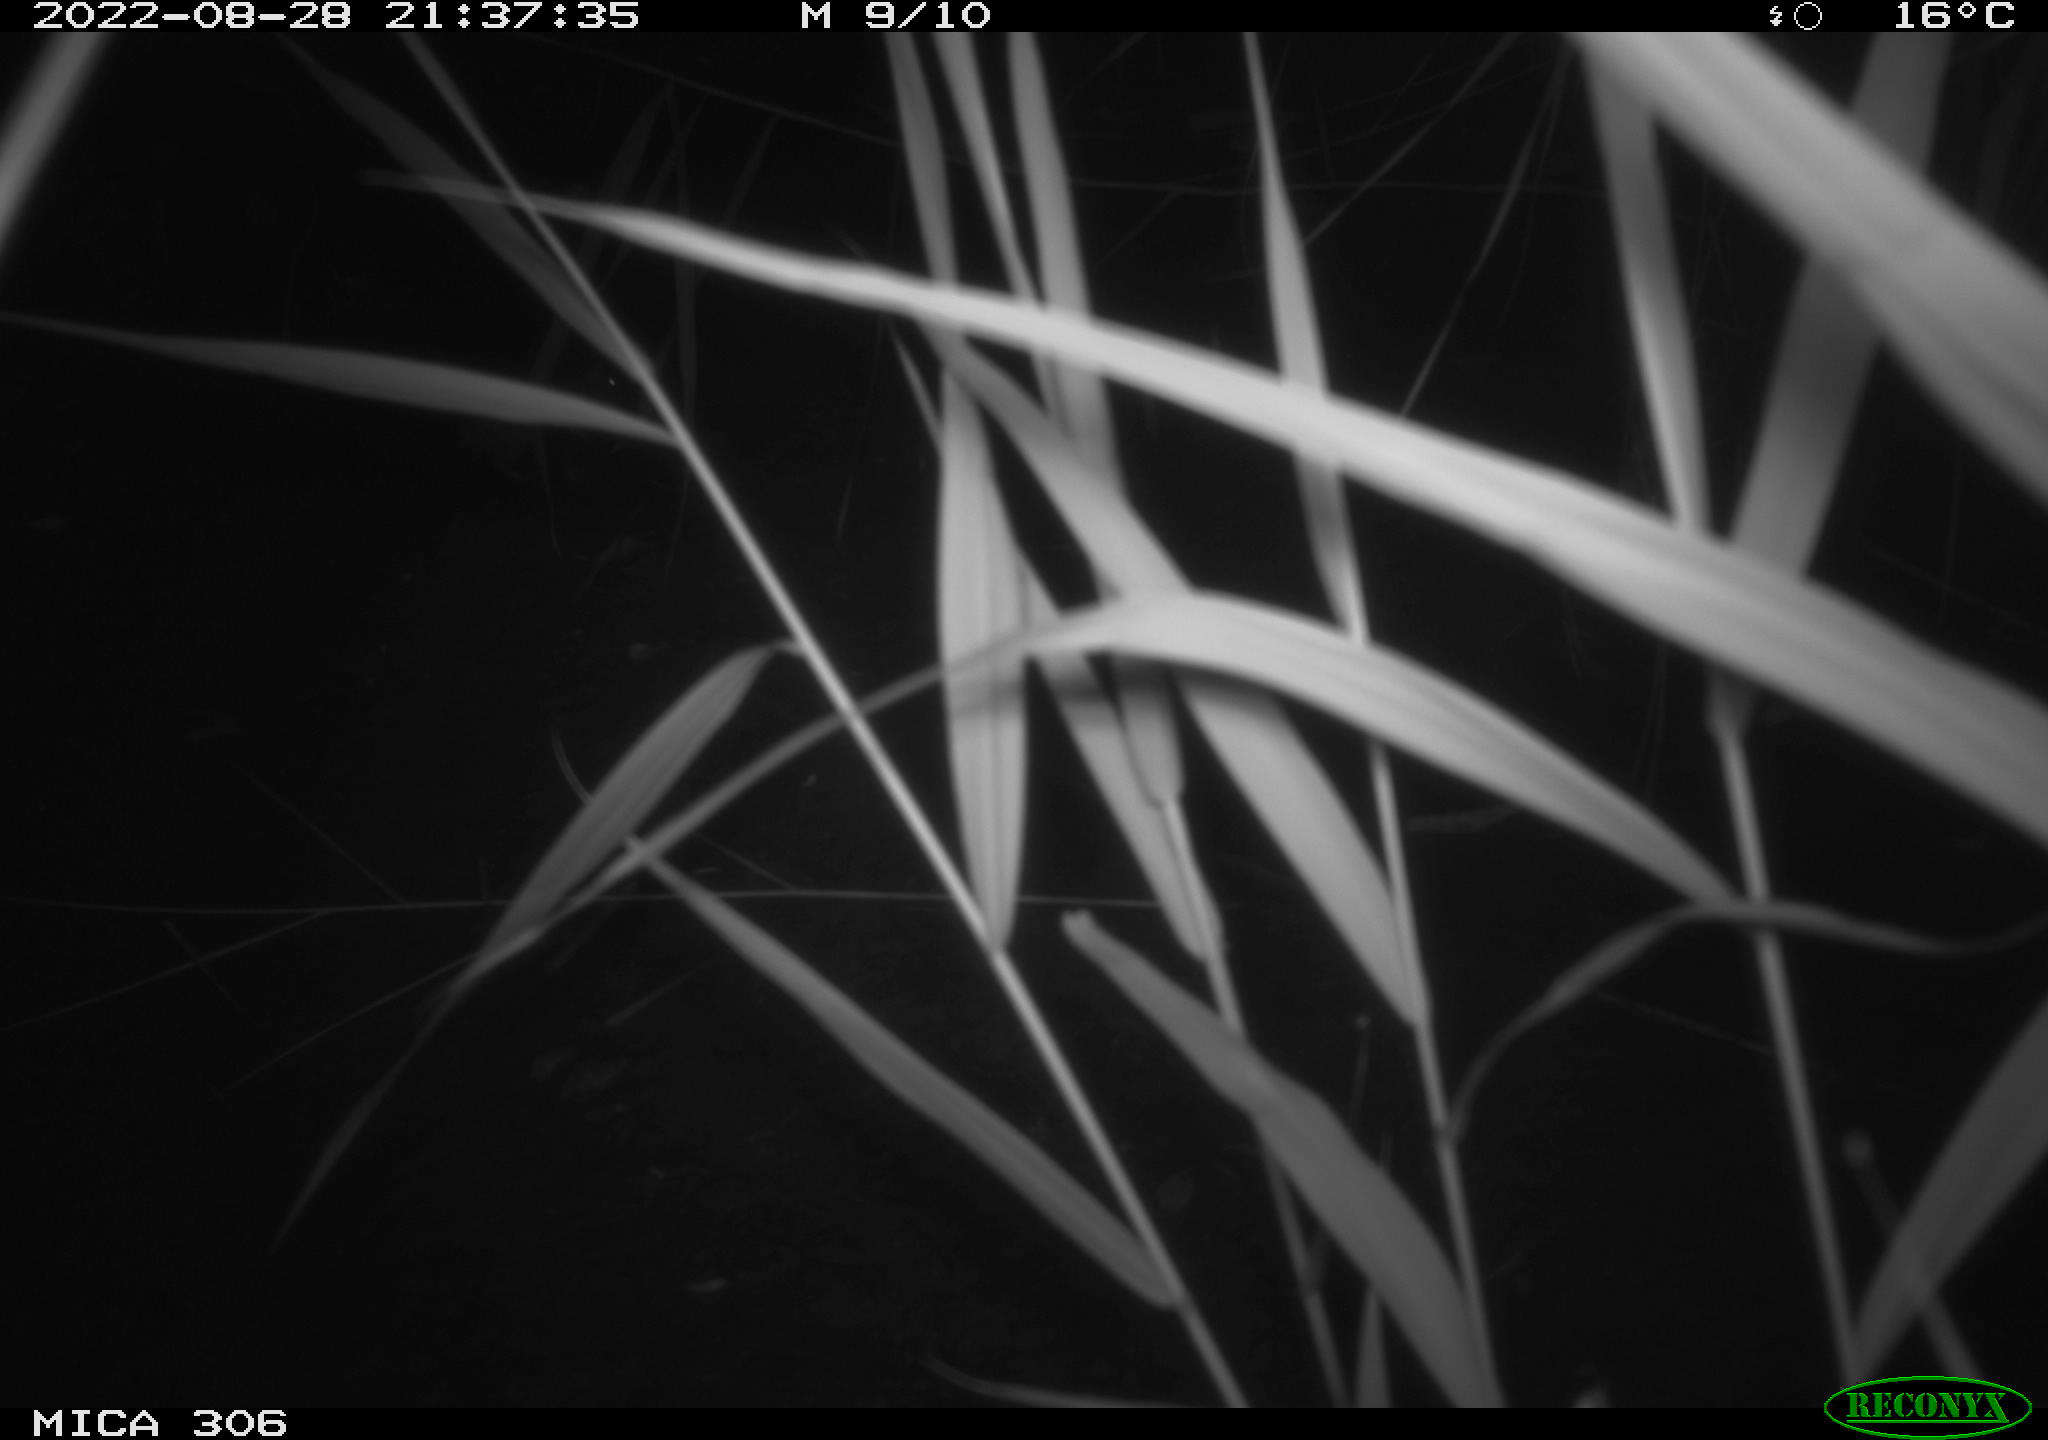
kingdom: Animalia
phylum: Chordata
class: Mammalia
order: Rodentia
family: Muridae
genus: Rattus
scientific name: Rattus norvegicus
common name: Brown rat
